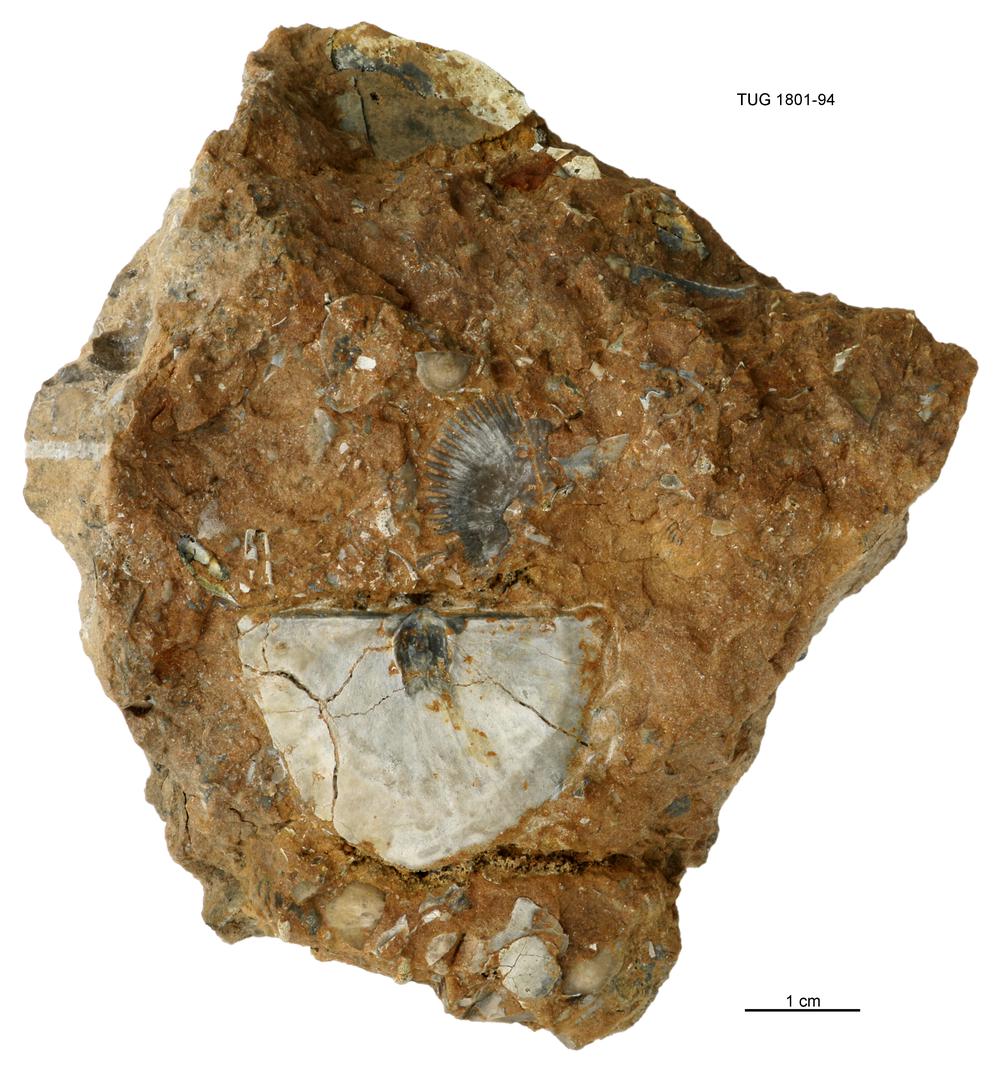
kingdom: Animalia
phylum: Brachiopoda
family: Strophomenidae
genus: Actinomena
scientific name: Actinomena orta
